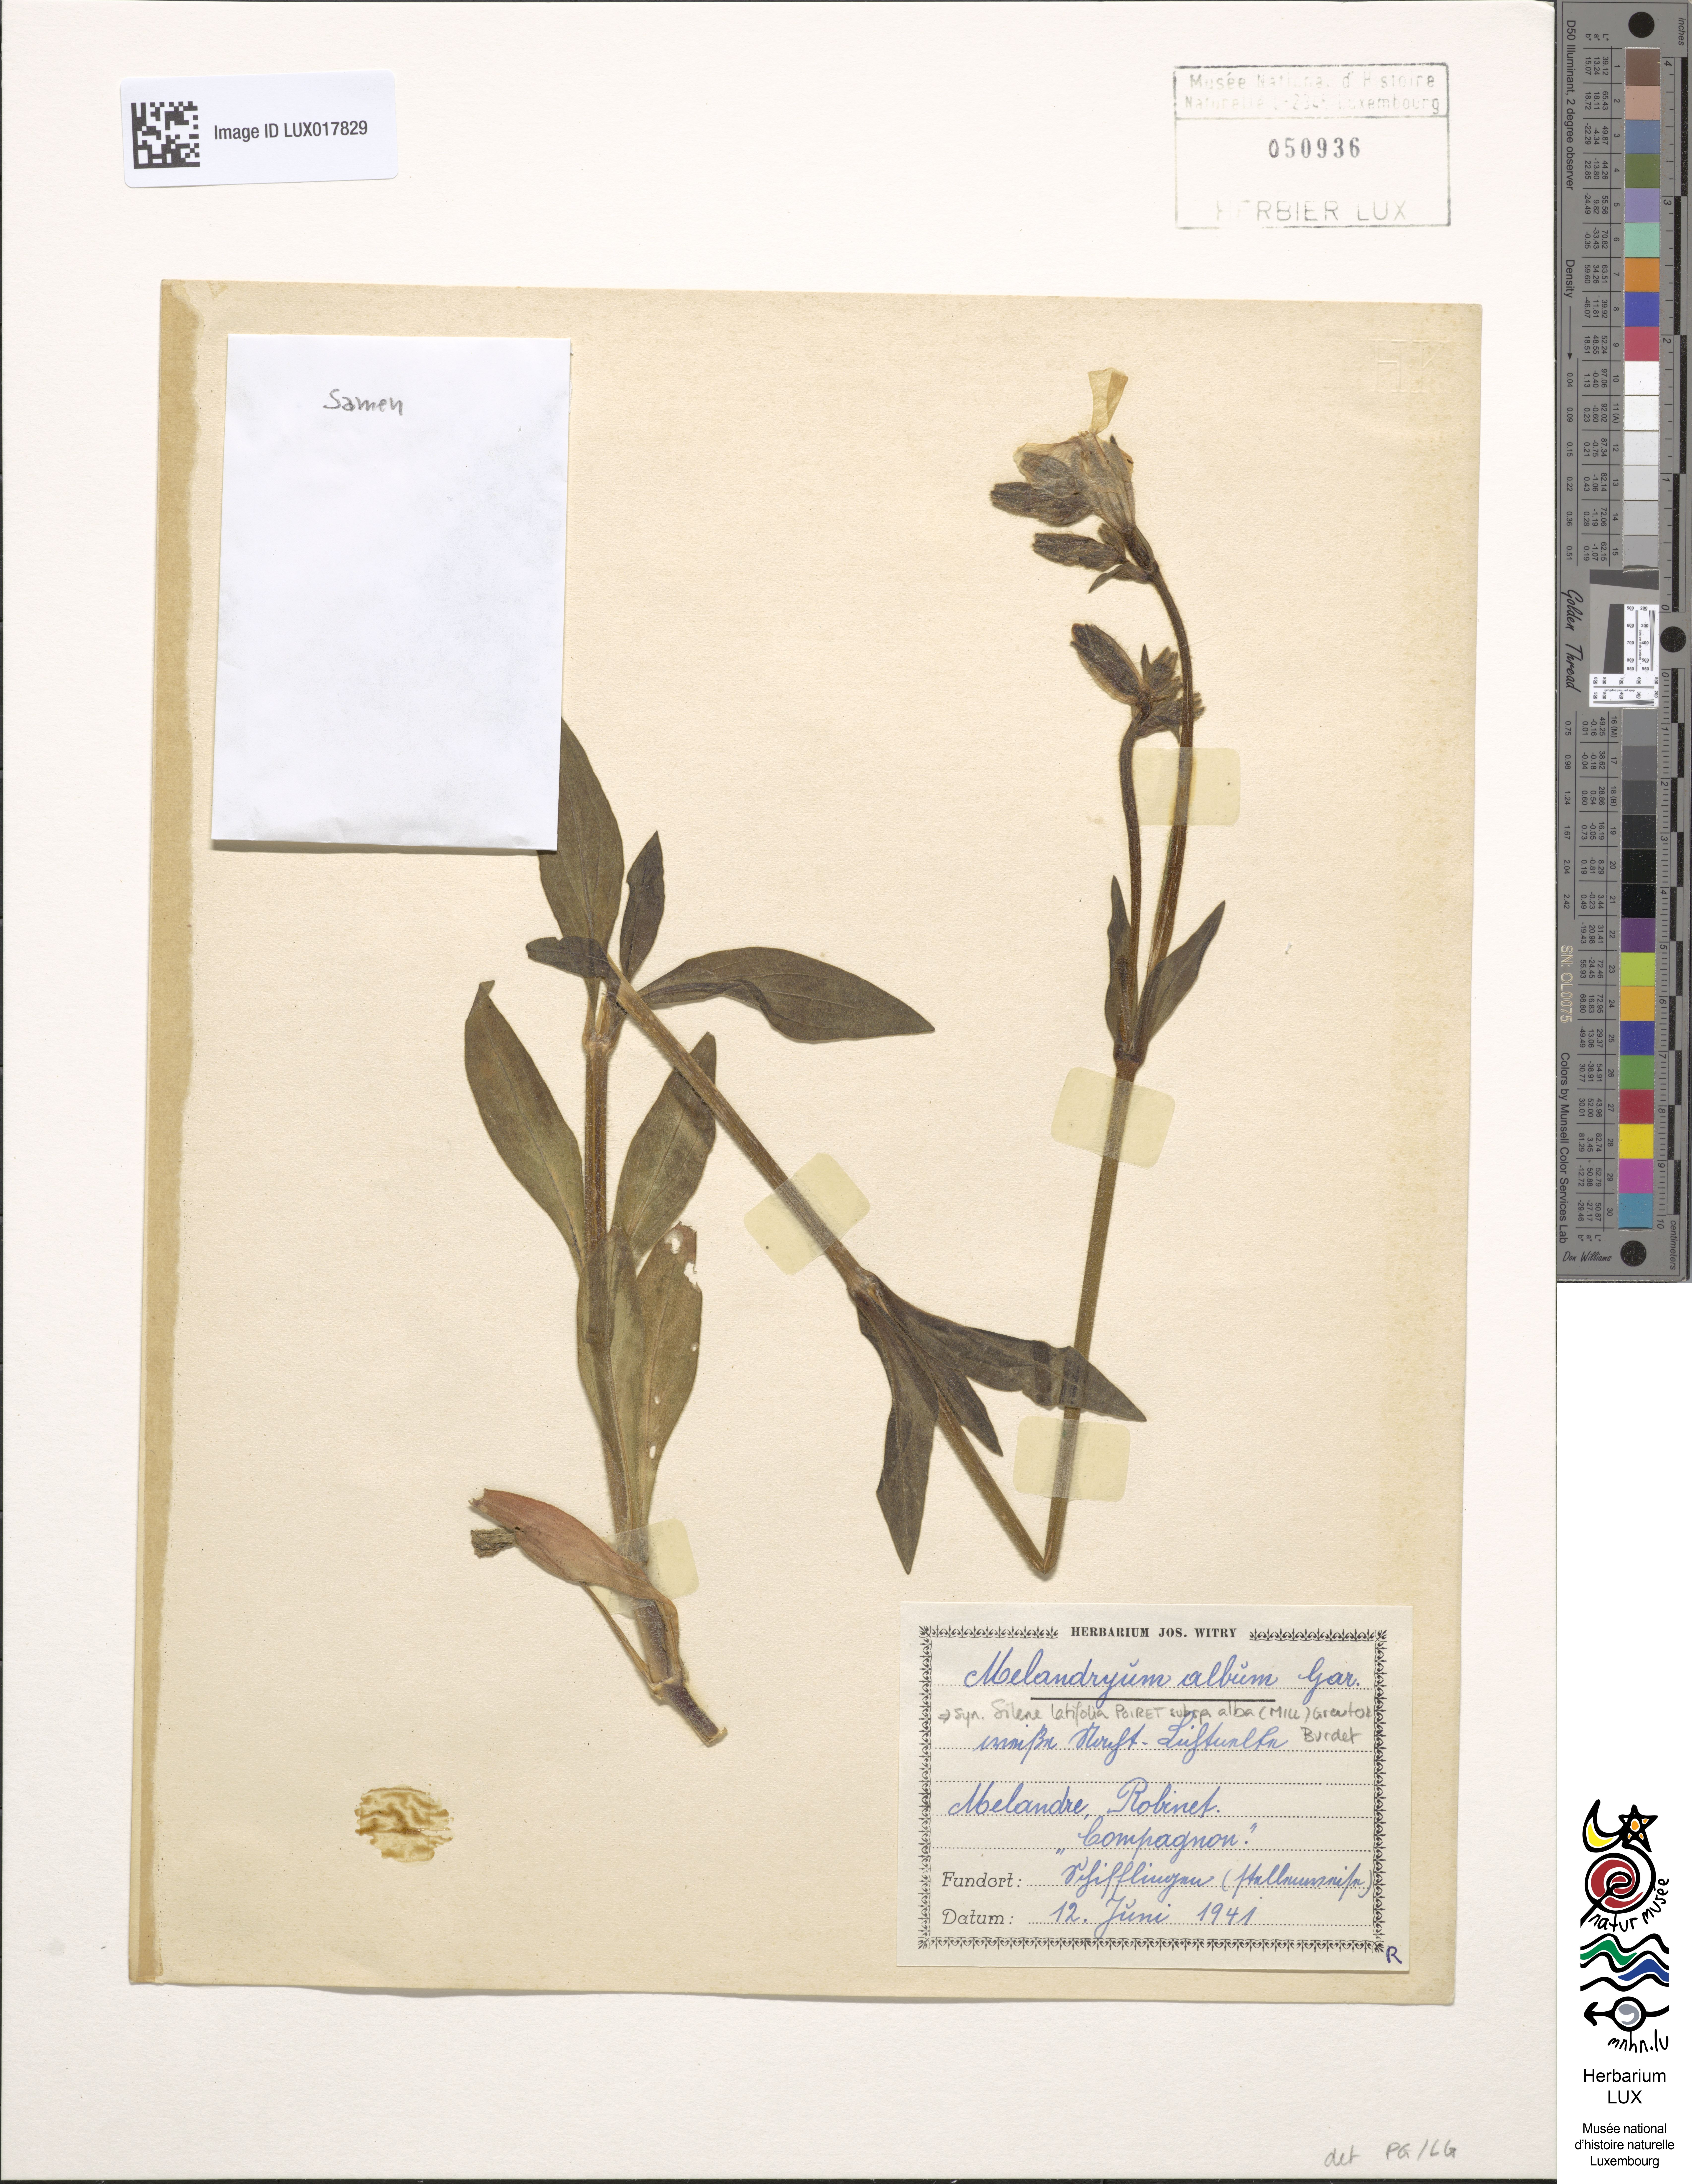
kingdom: Plantae
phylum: Tracheophyta
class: Magnoliopsida
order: Caryophyllales
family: Caryophyllaceae
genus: Silene
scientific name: Silene latifolia
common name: White campion
